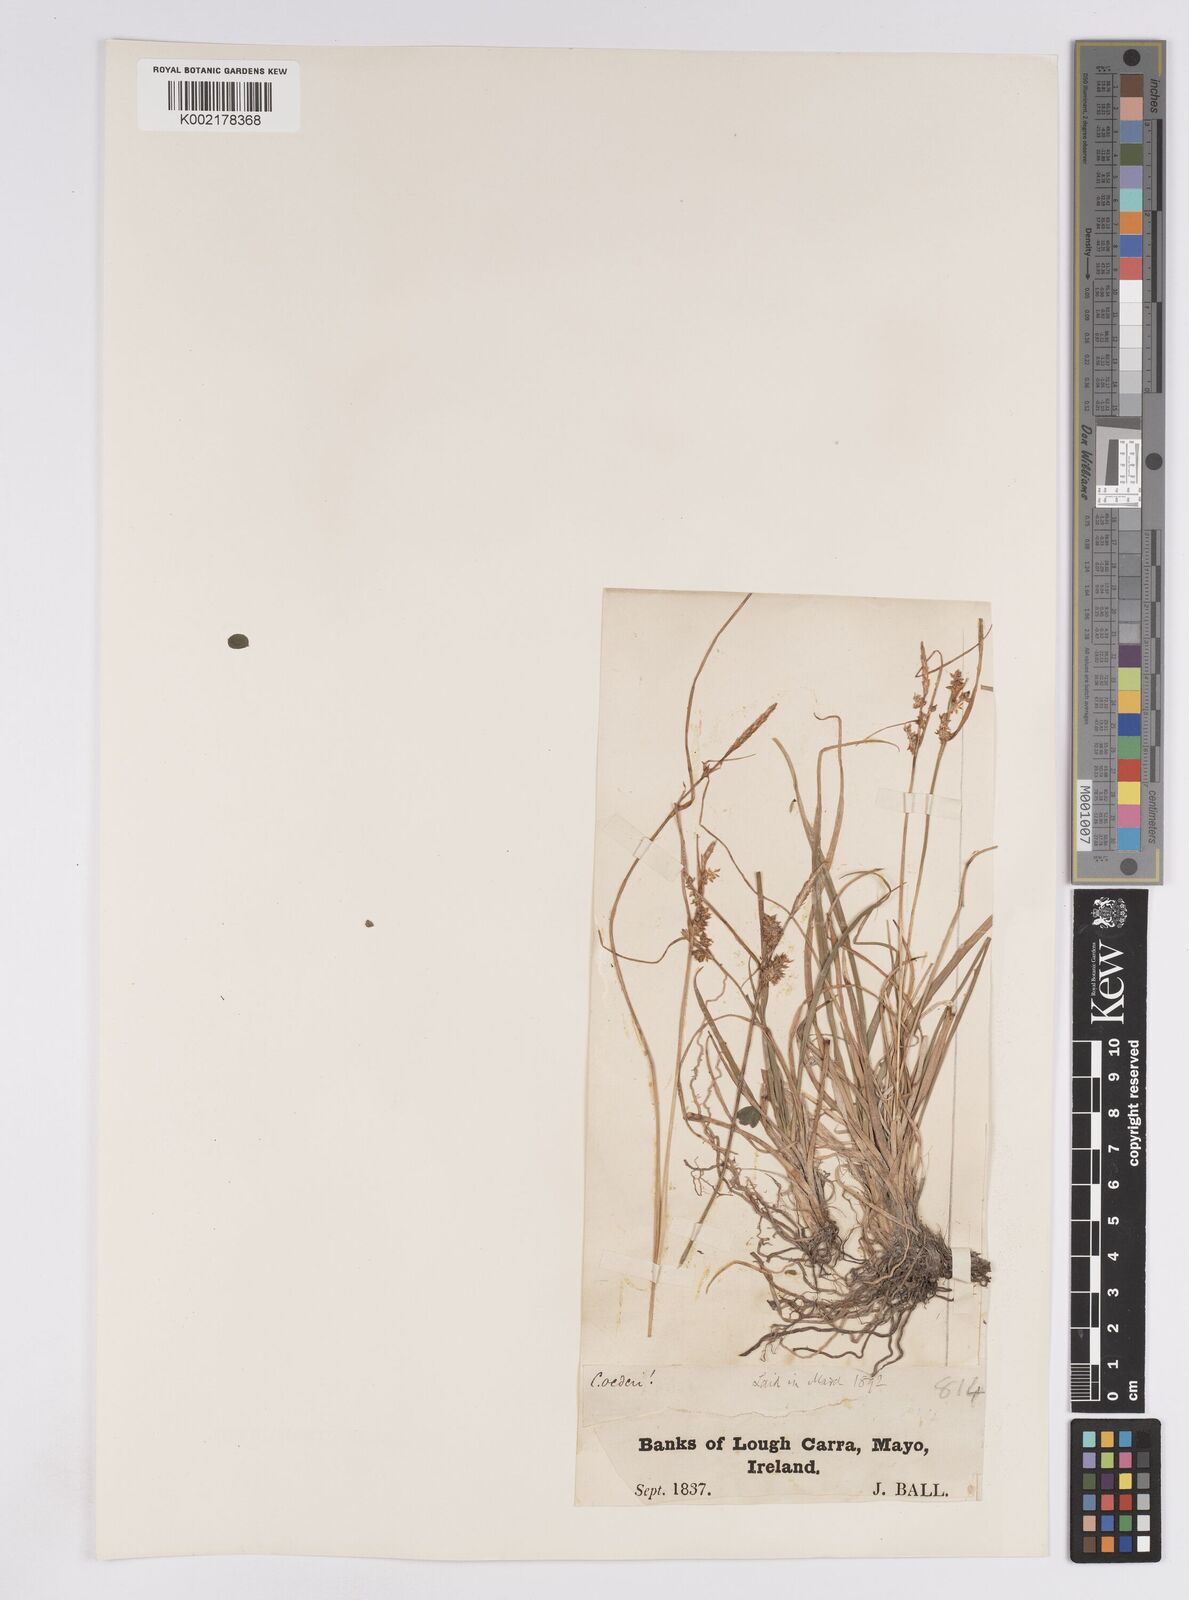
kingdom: Plantae
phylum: Tracheophyta
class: Liliopsida
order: Poales
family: Cyperaceae
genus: Carex
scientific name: Carex demissa
